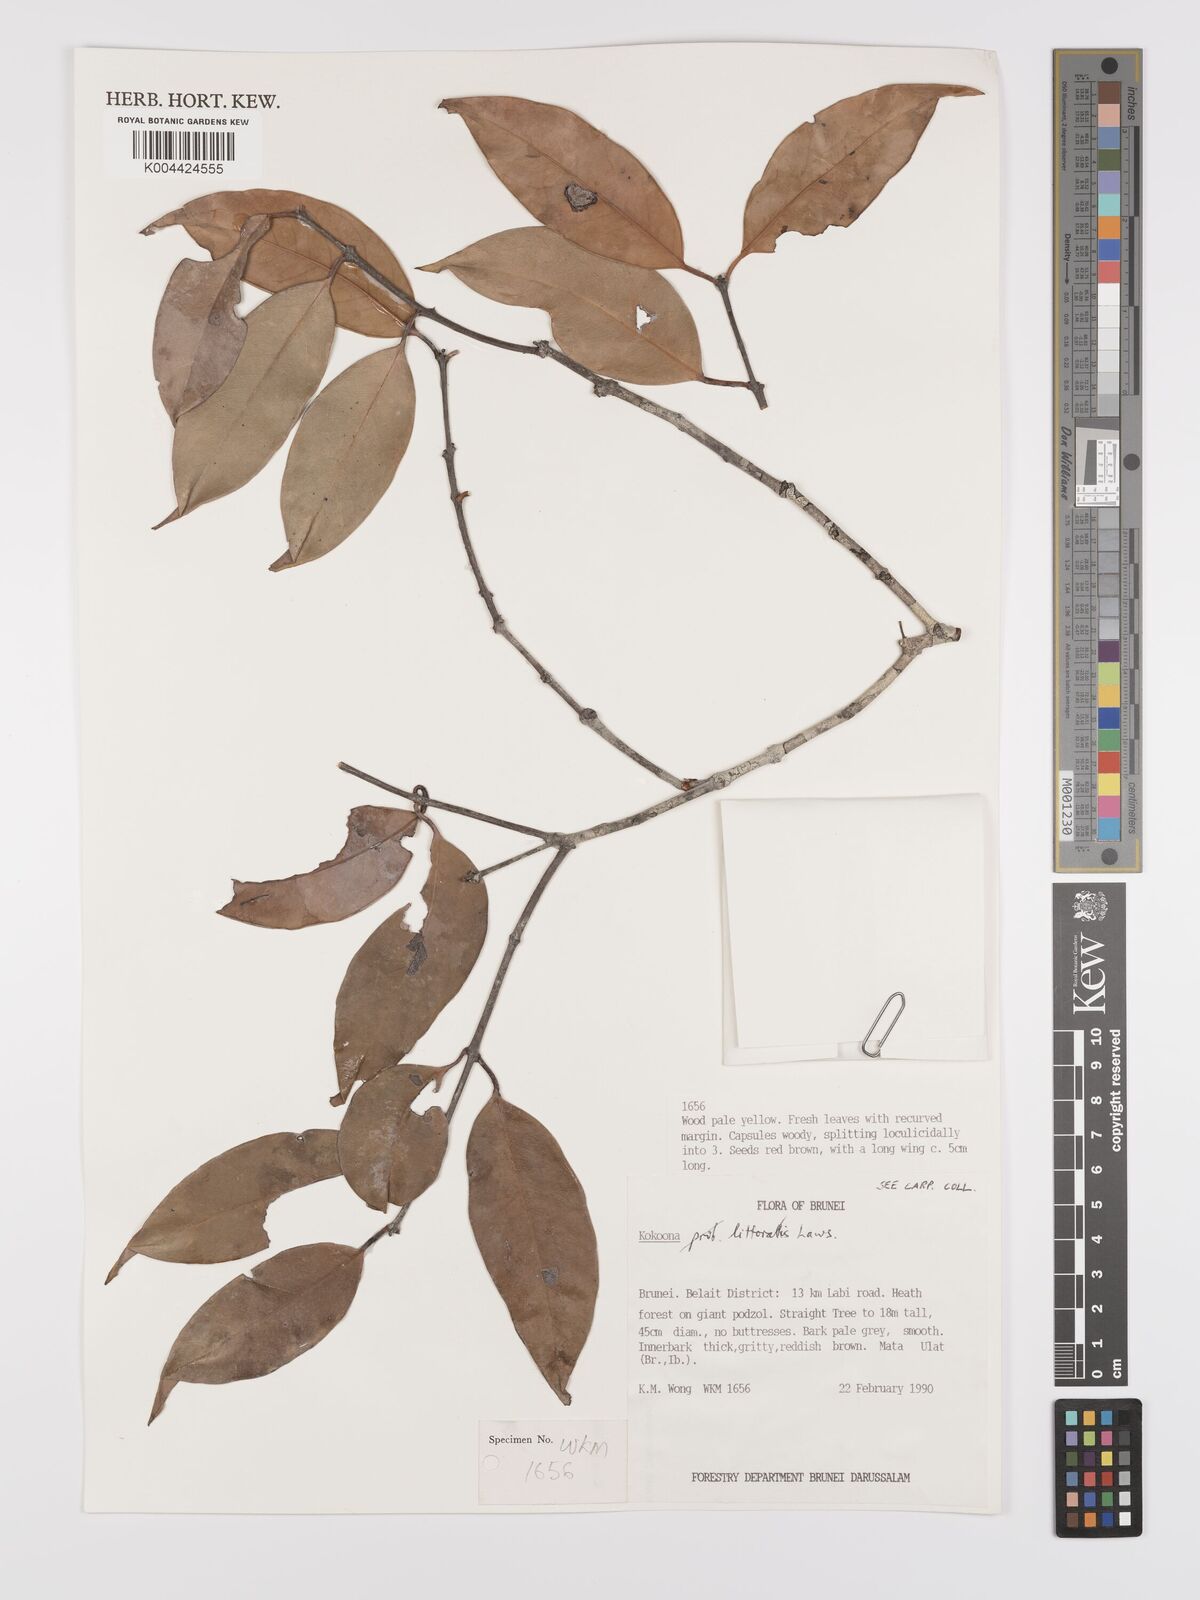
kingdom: Plantae
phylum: Tracheophyta
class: Magnoliopsida
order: Celastrales
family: Celastraceae
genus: Kokoona
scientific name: Kokoona littoralis
